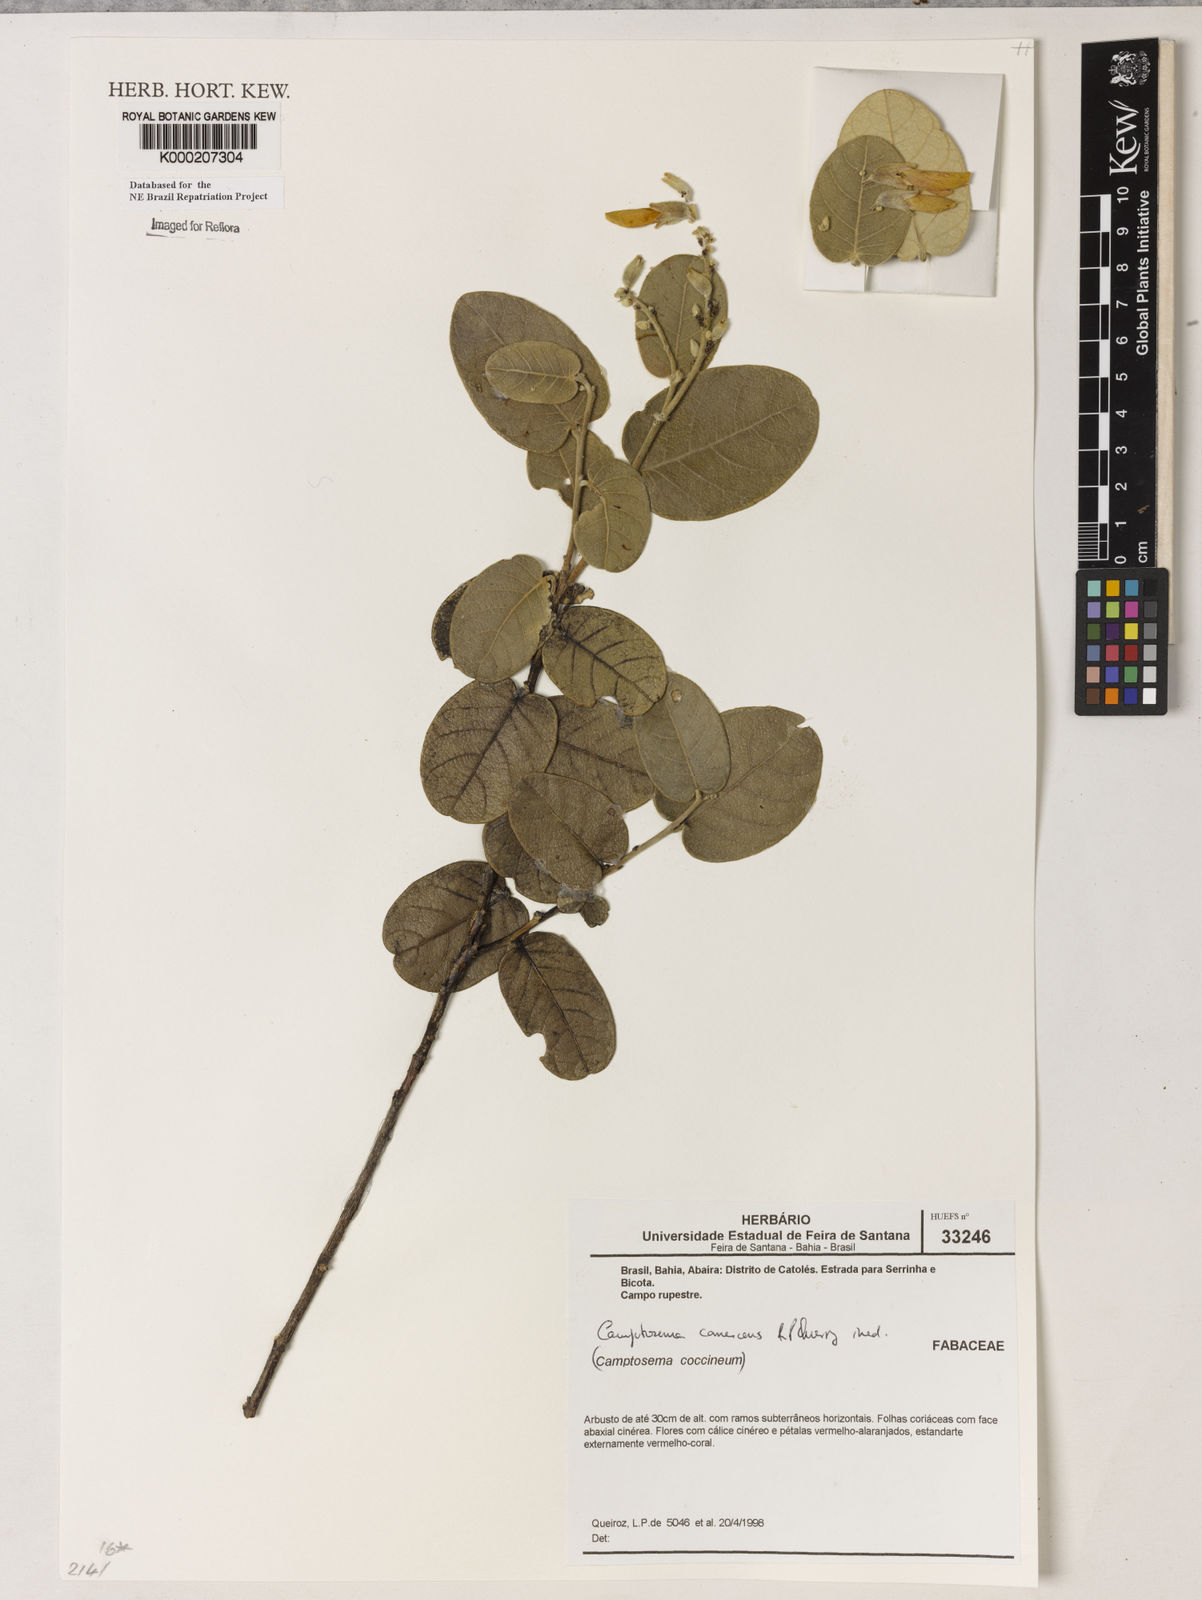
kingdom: Plantae
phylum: Tracheophyta
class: Magnoliopsida
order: Fabales
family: Fabaceae
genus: Camptosema
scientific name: Camptosema
